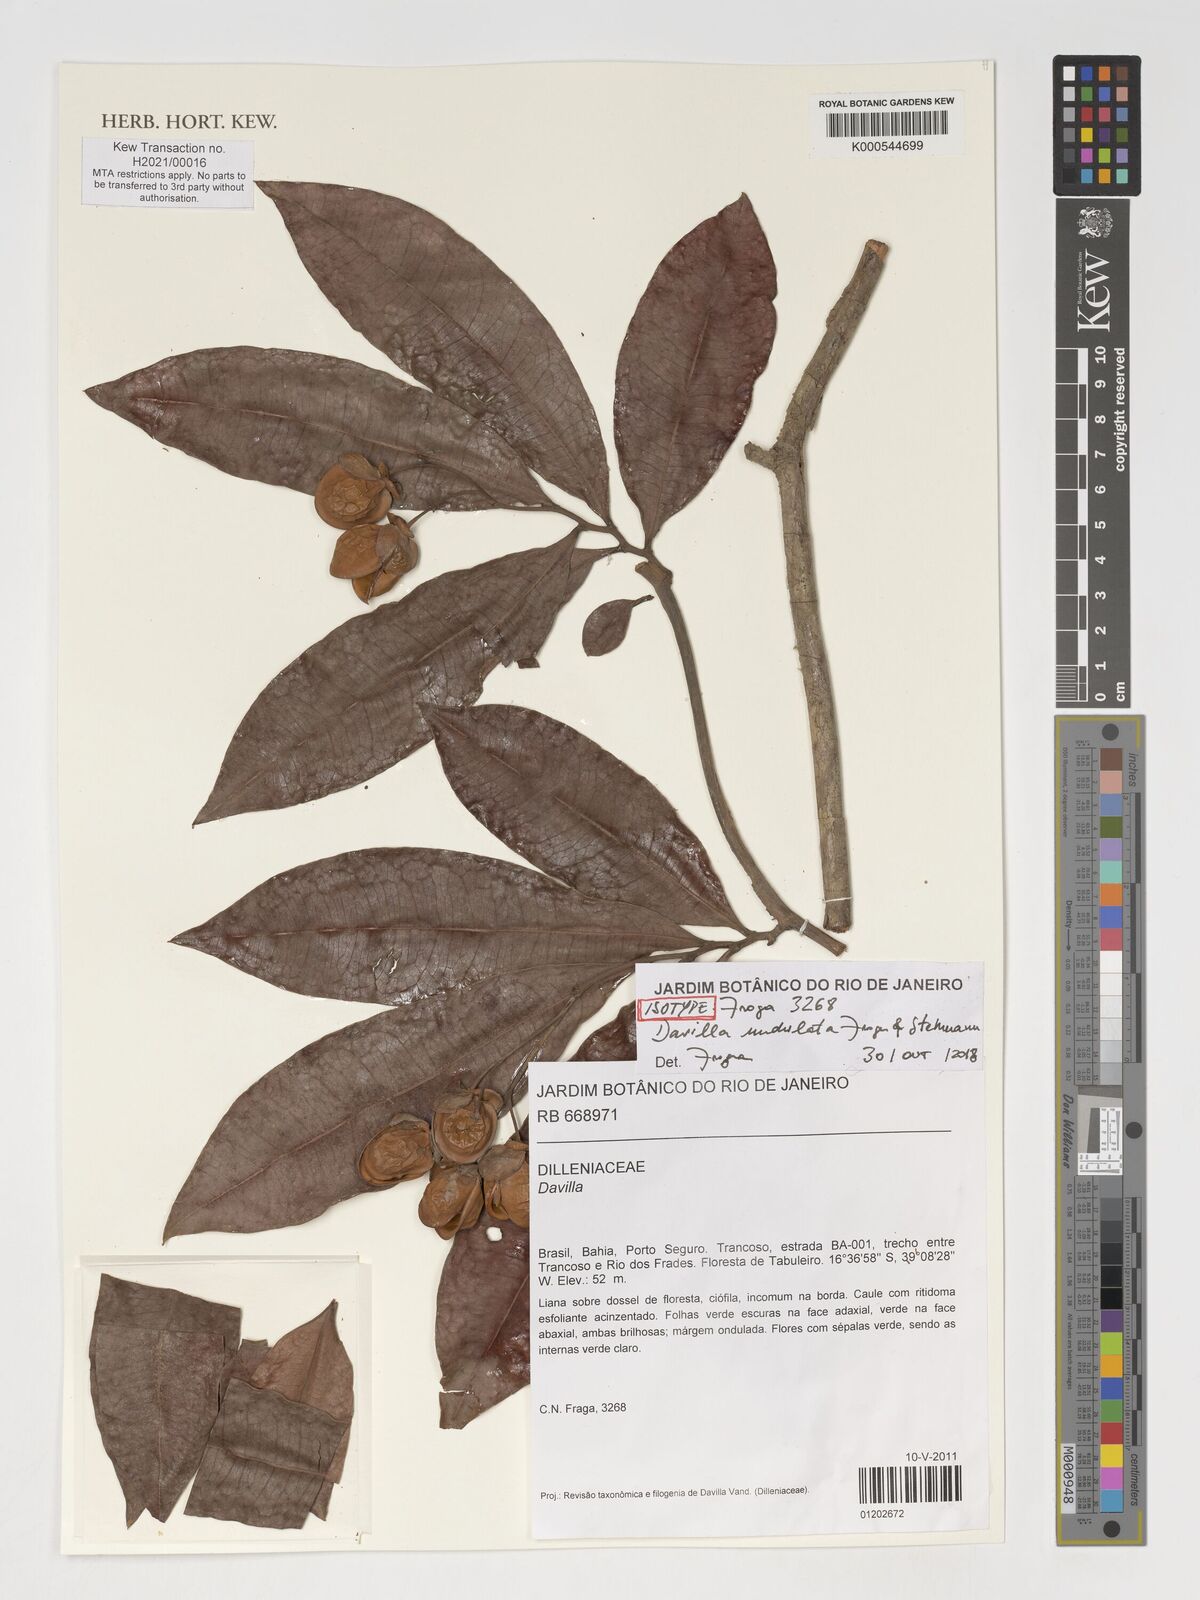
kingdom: Plantae
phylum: Tracheophyta
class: Magnoliopsida
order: Dilleniales
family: Dilleniaceae
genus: Davilla
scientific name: Davilla undulata
